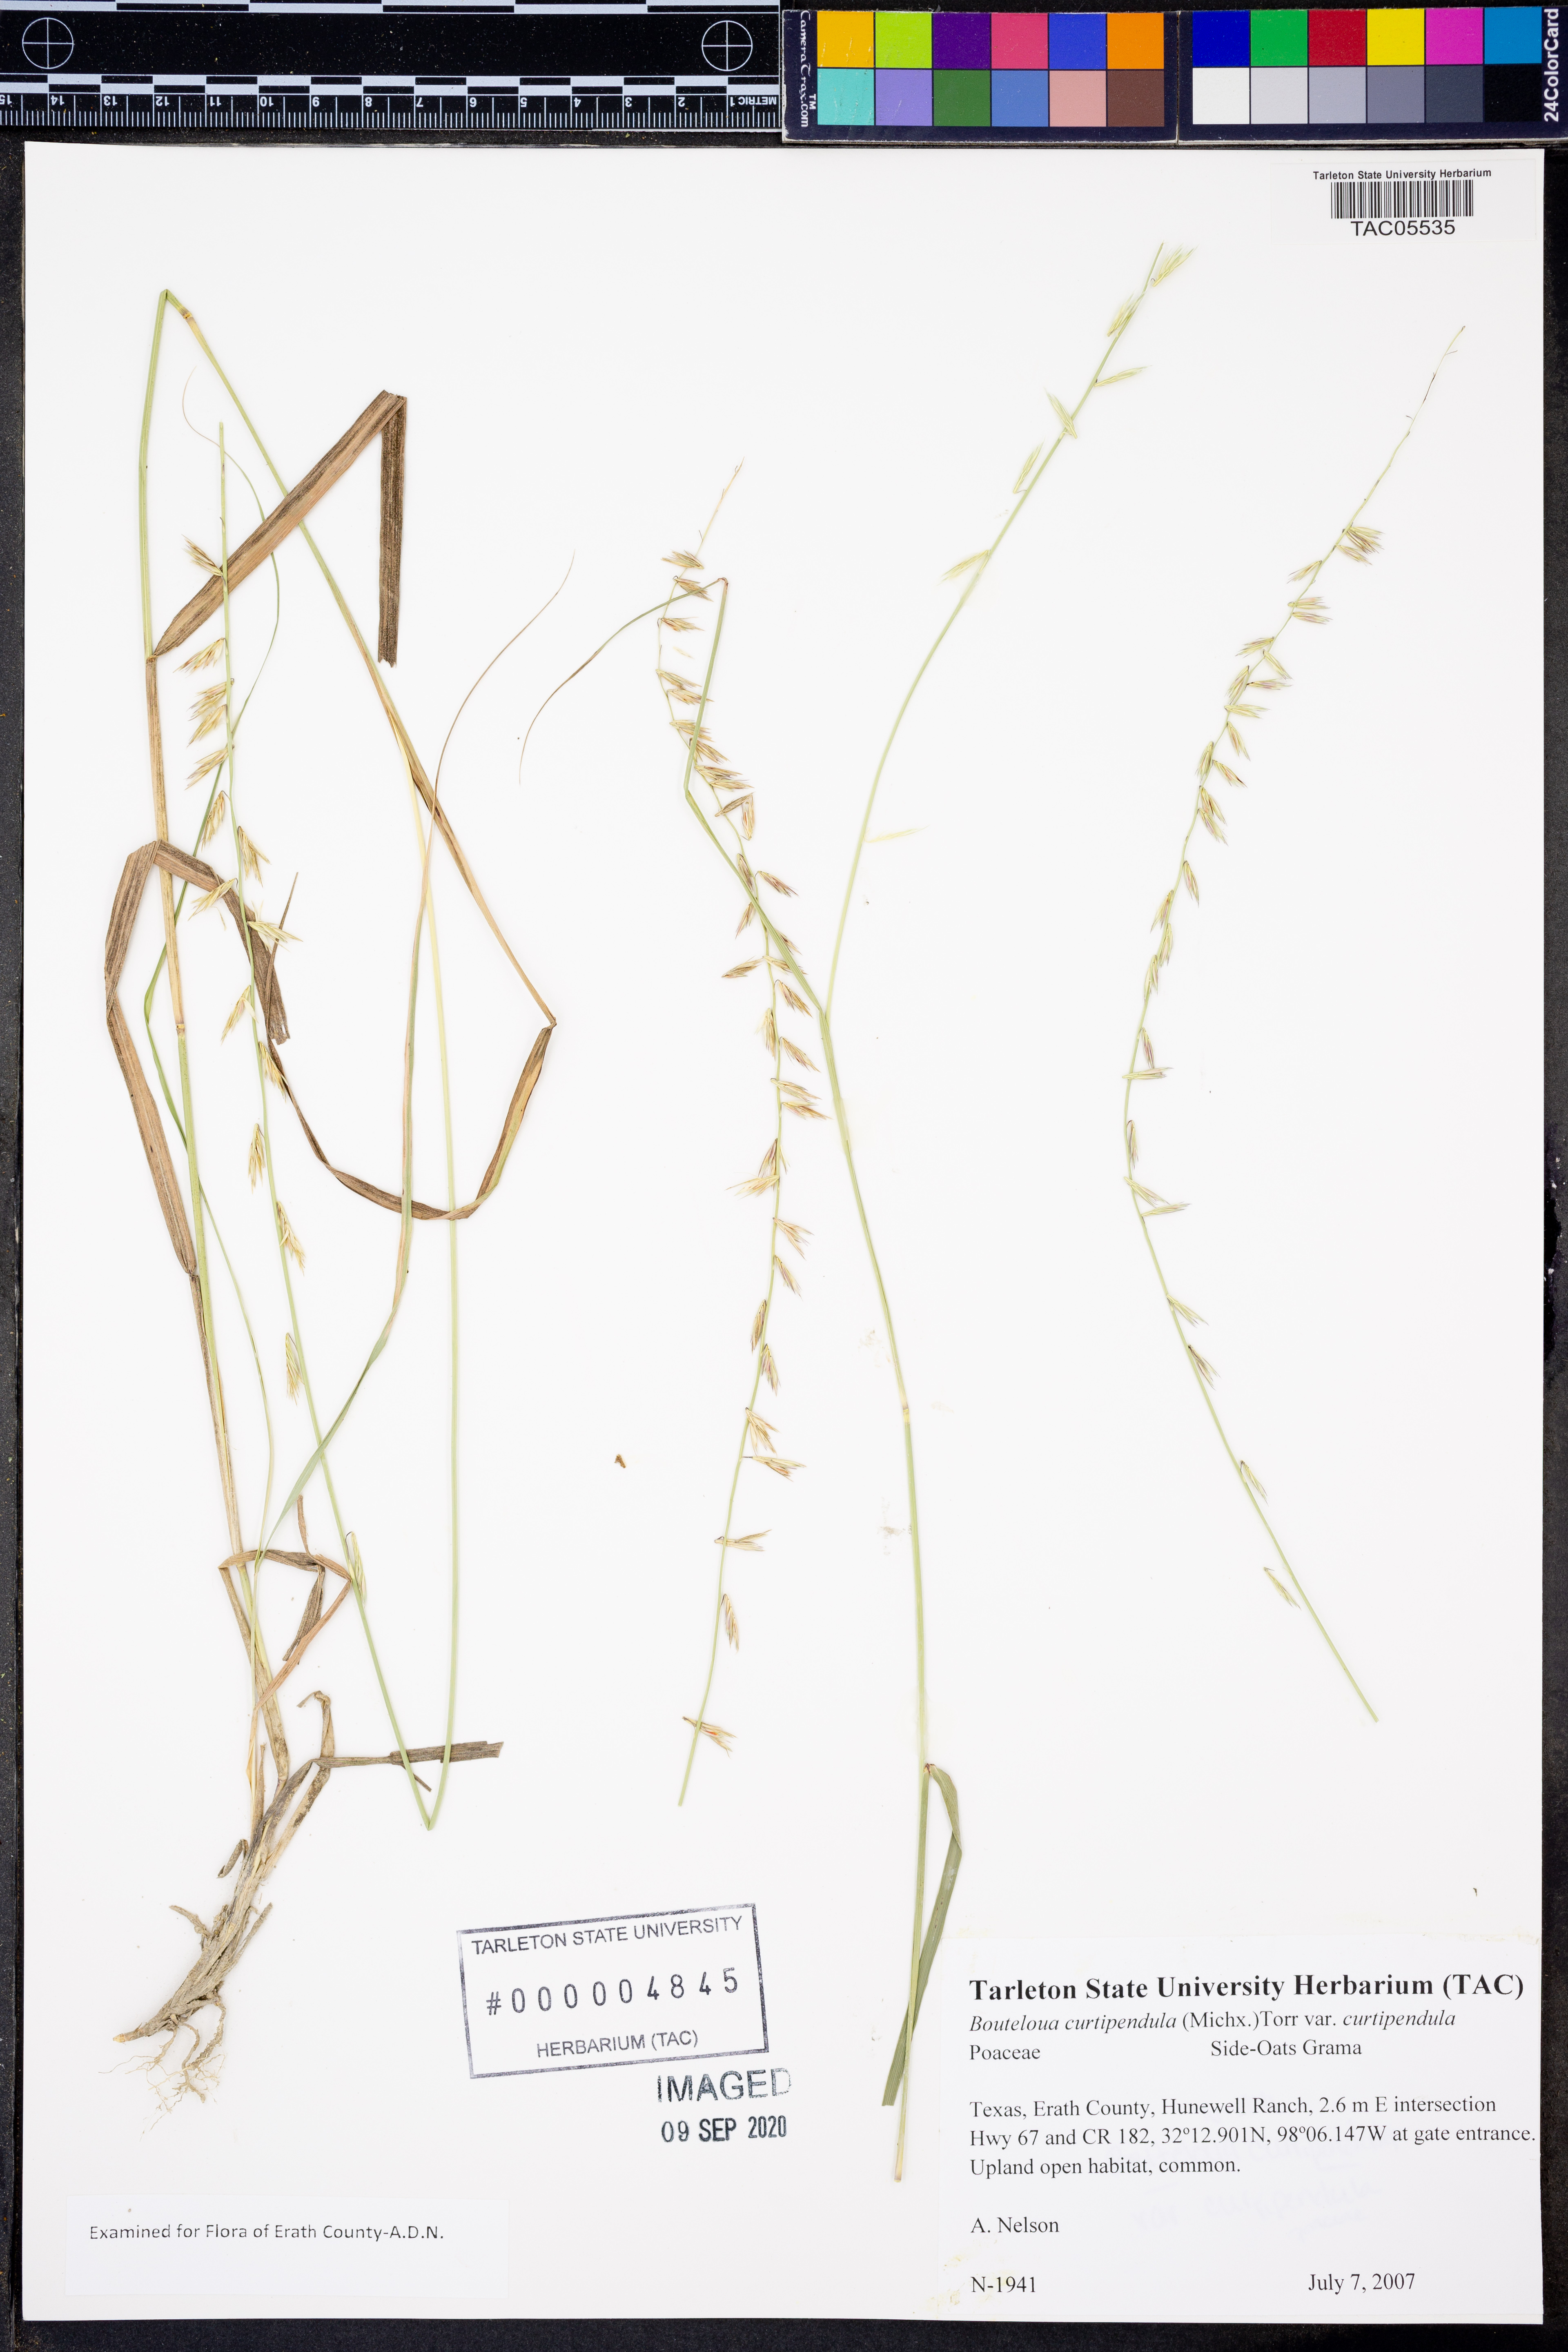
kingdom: Plantae
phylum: Tracheophyta
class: Liliopsida
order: Poales
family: Poaceae
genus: Bouteloua
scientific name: Bouteloua curtipendula
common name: Side-oats grama
